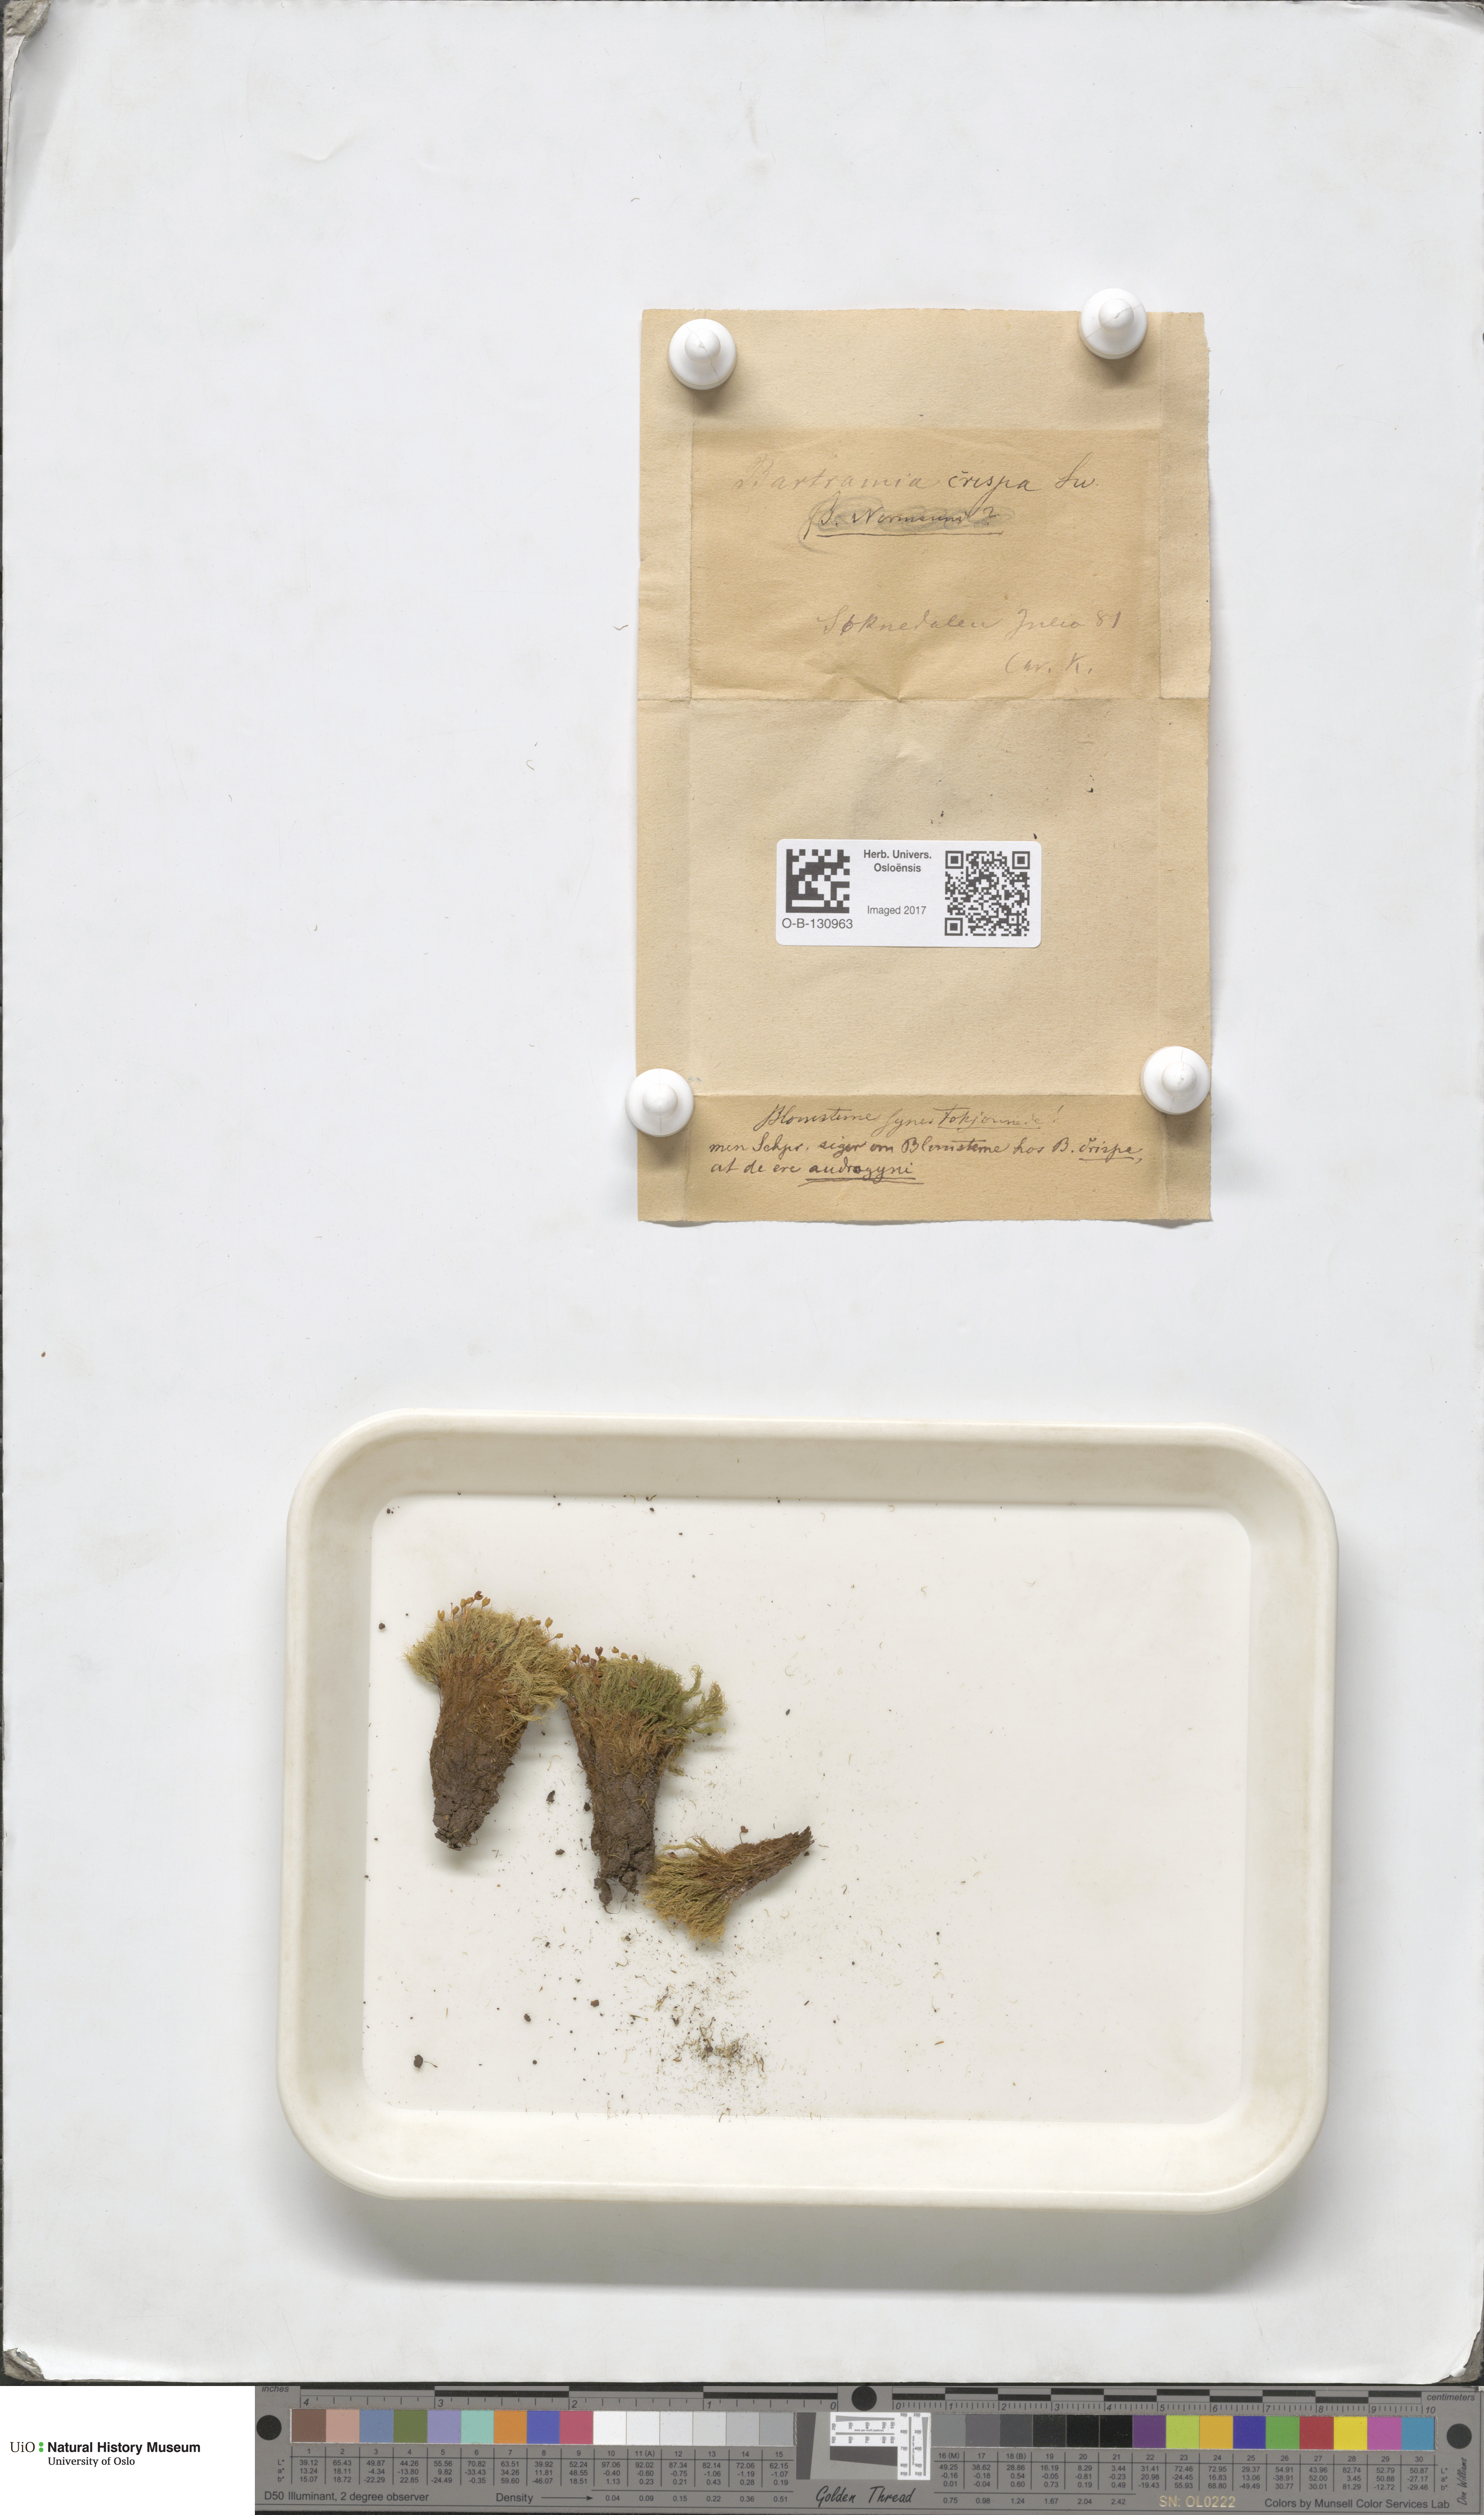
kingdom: Plantae
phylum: Bryophyta
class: Bryopsida
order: Bartramiales
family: Bartramiaceae
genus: Bartramia
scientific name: Bartramia pomiformis
